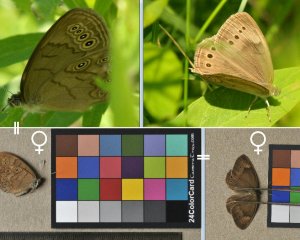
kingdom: Animalia
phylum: Arthropoda
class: Insecta
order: Lepidoptera
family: Nymphalidae
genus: Lethe
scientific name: Lethe eurydice
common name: Eyed Brown
